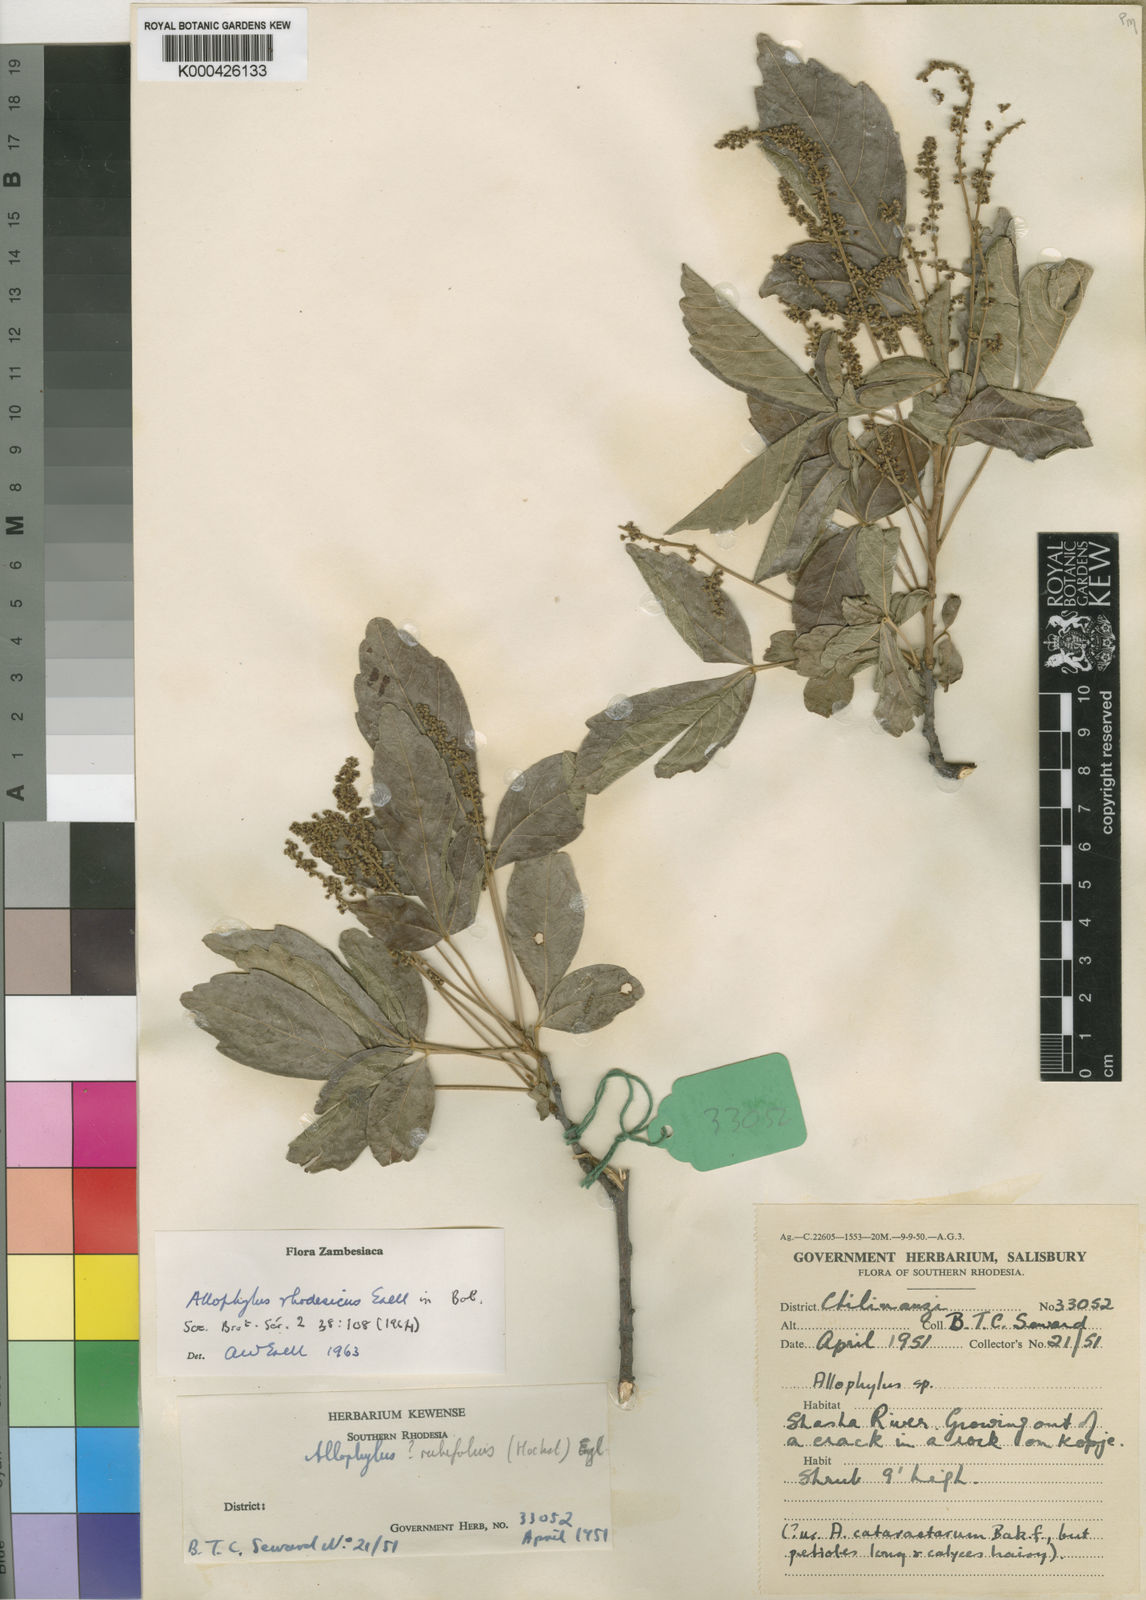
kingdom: Plantae
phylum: Tracheophyta
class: Magnoliopsida
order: Sapindales
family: Sapindaceae
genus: Allophylus
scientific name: Allophylus africanus
